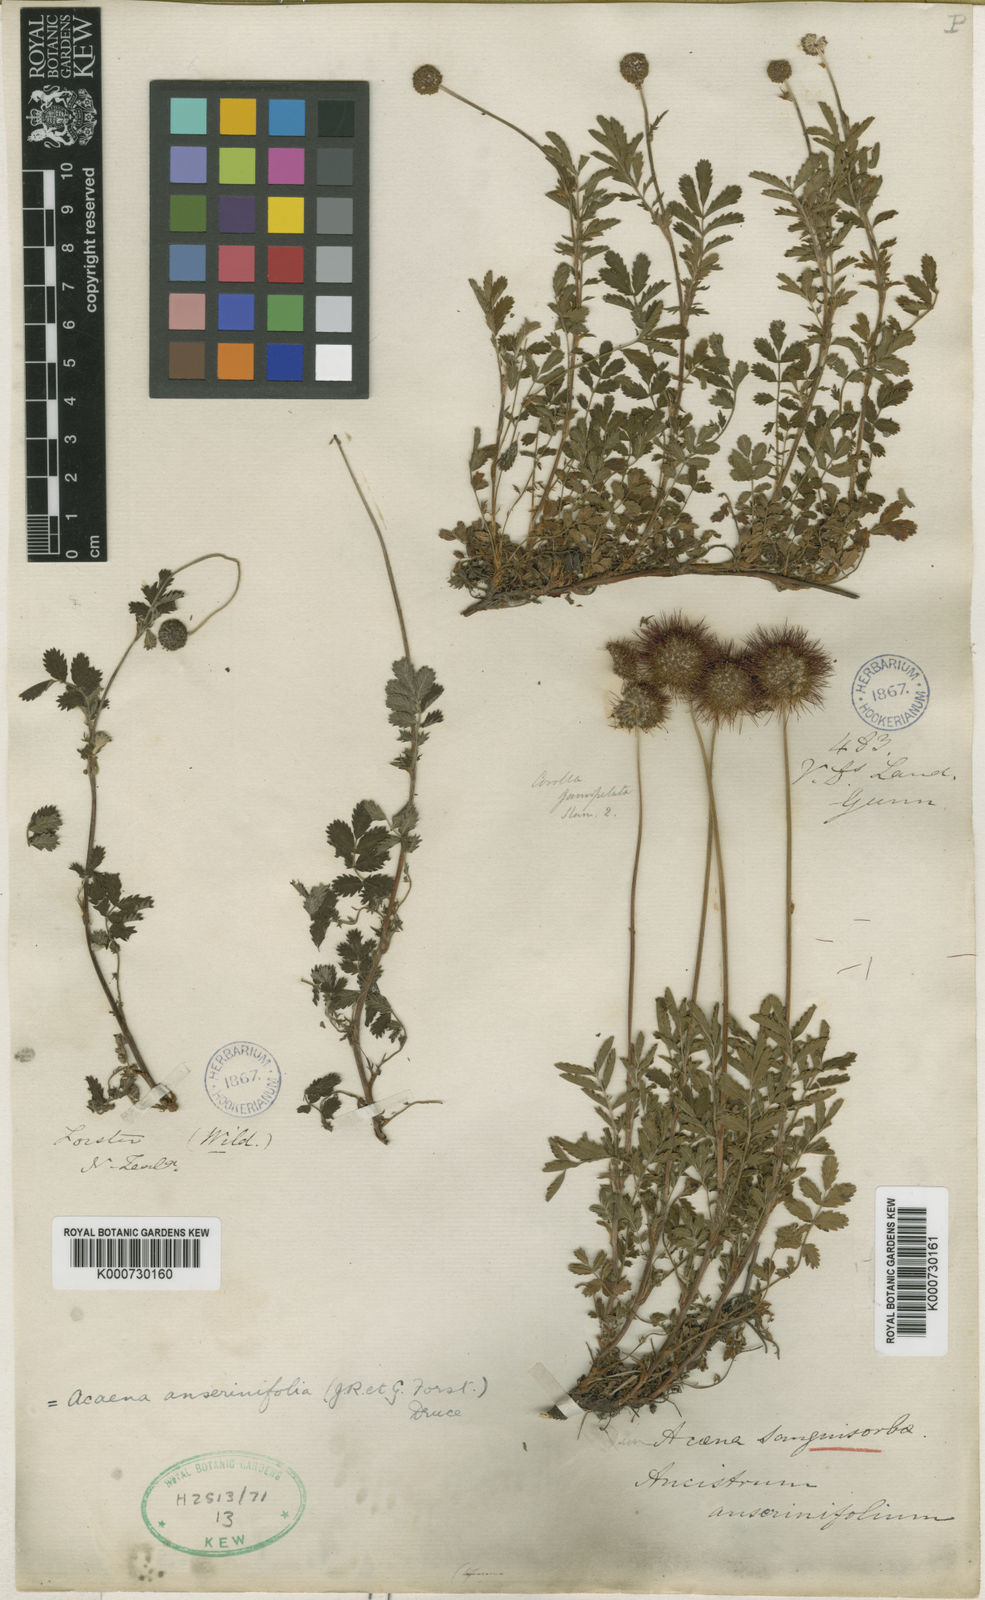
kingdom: Plantae
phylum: Tracheophyta
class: Magnoliopsida
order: Rosales
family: Rosaceae
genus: Acaena
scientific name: Acaena
